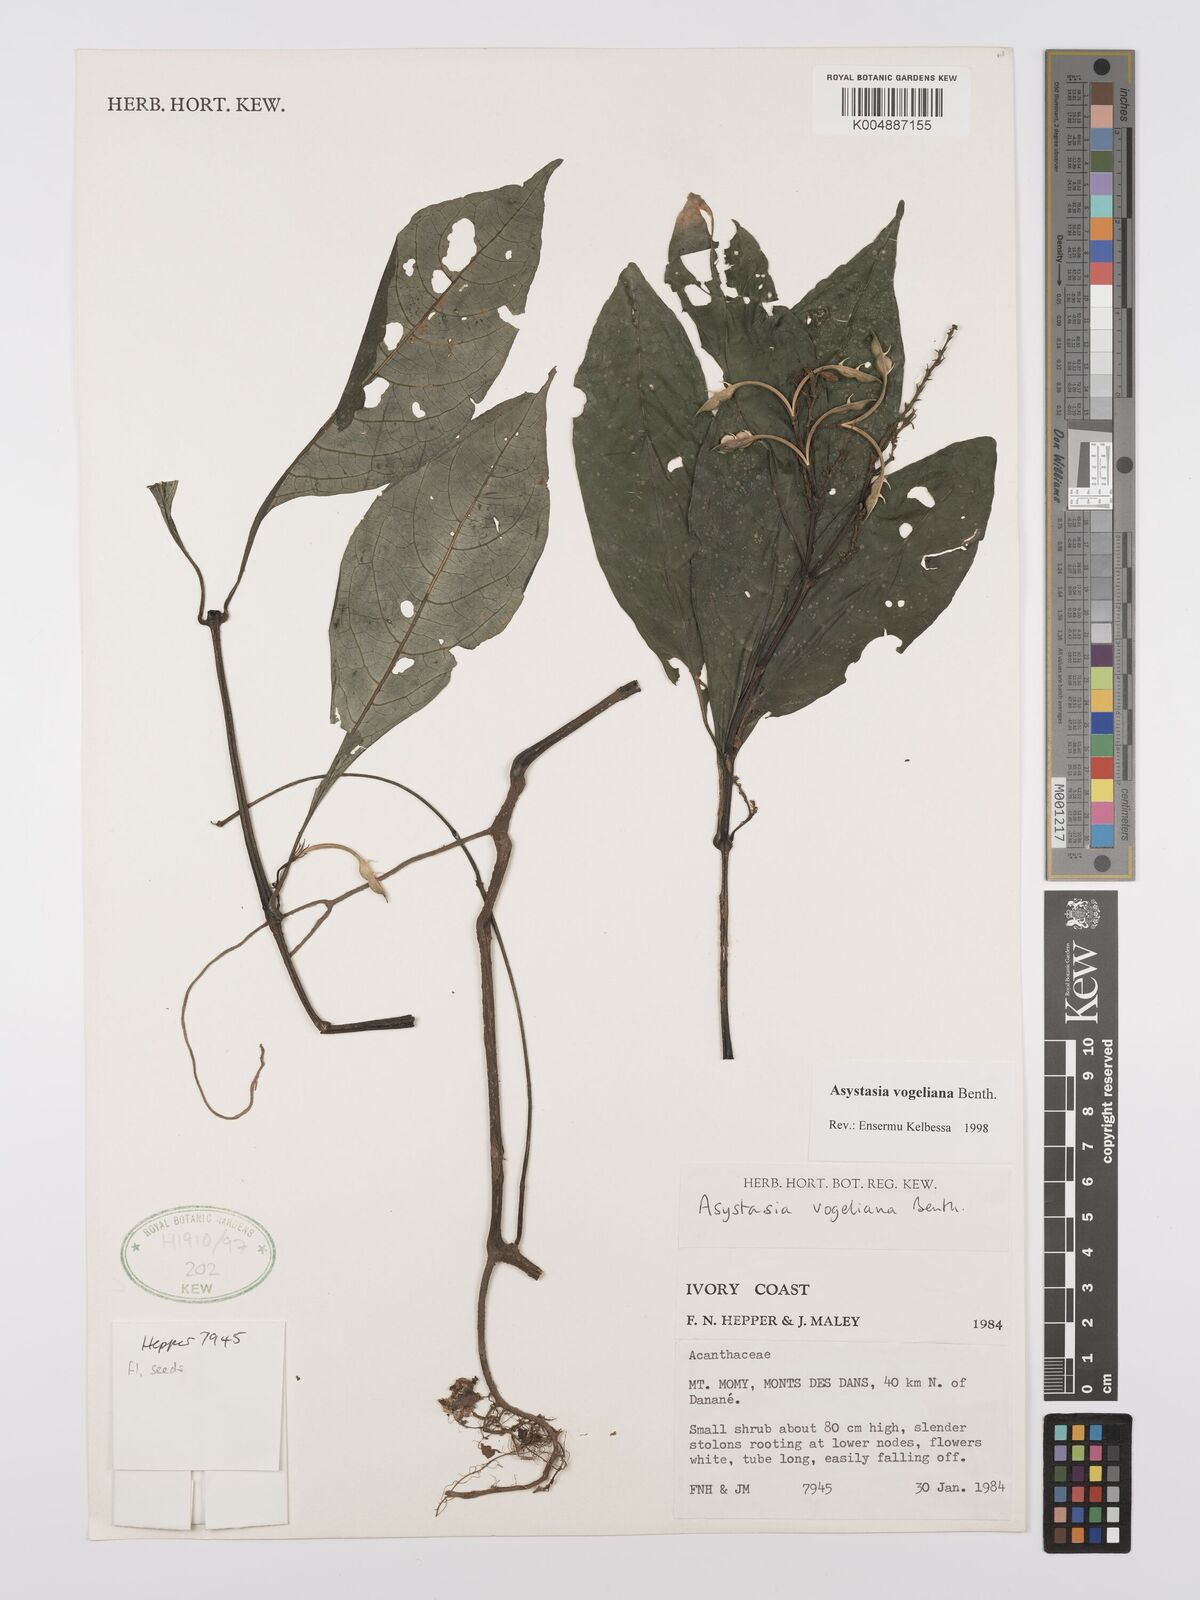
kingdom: Plantae
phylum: Tracheophyta
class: Magnoliopsida
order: Lamiales
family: Acanthaceae
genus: Asystasia
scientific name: Asystasia vogeliana
